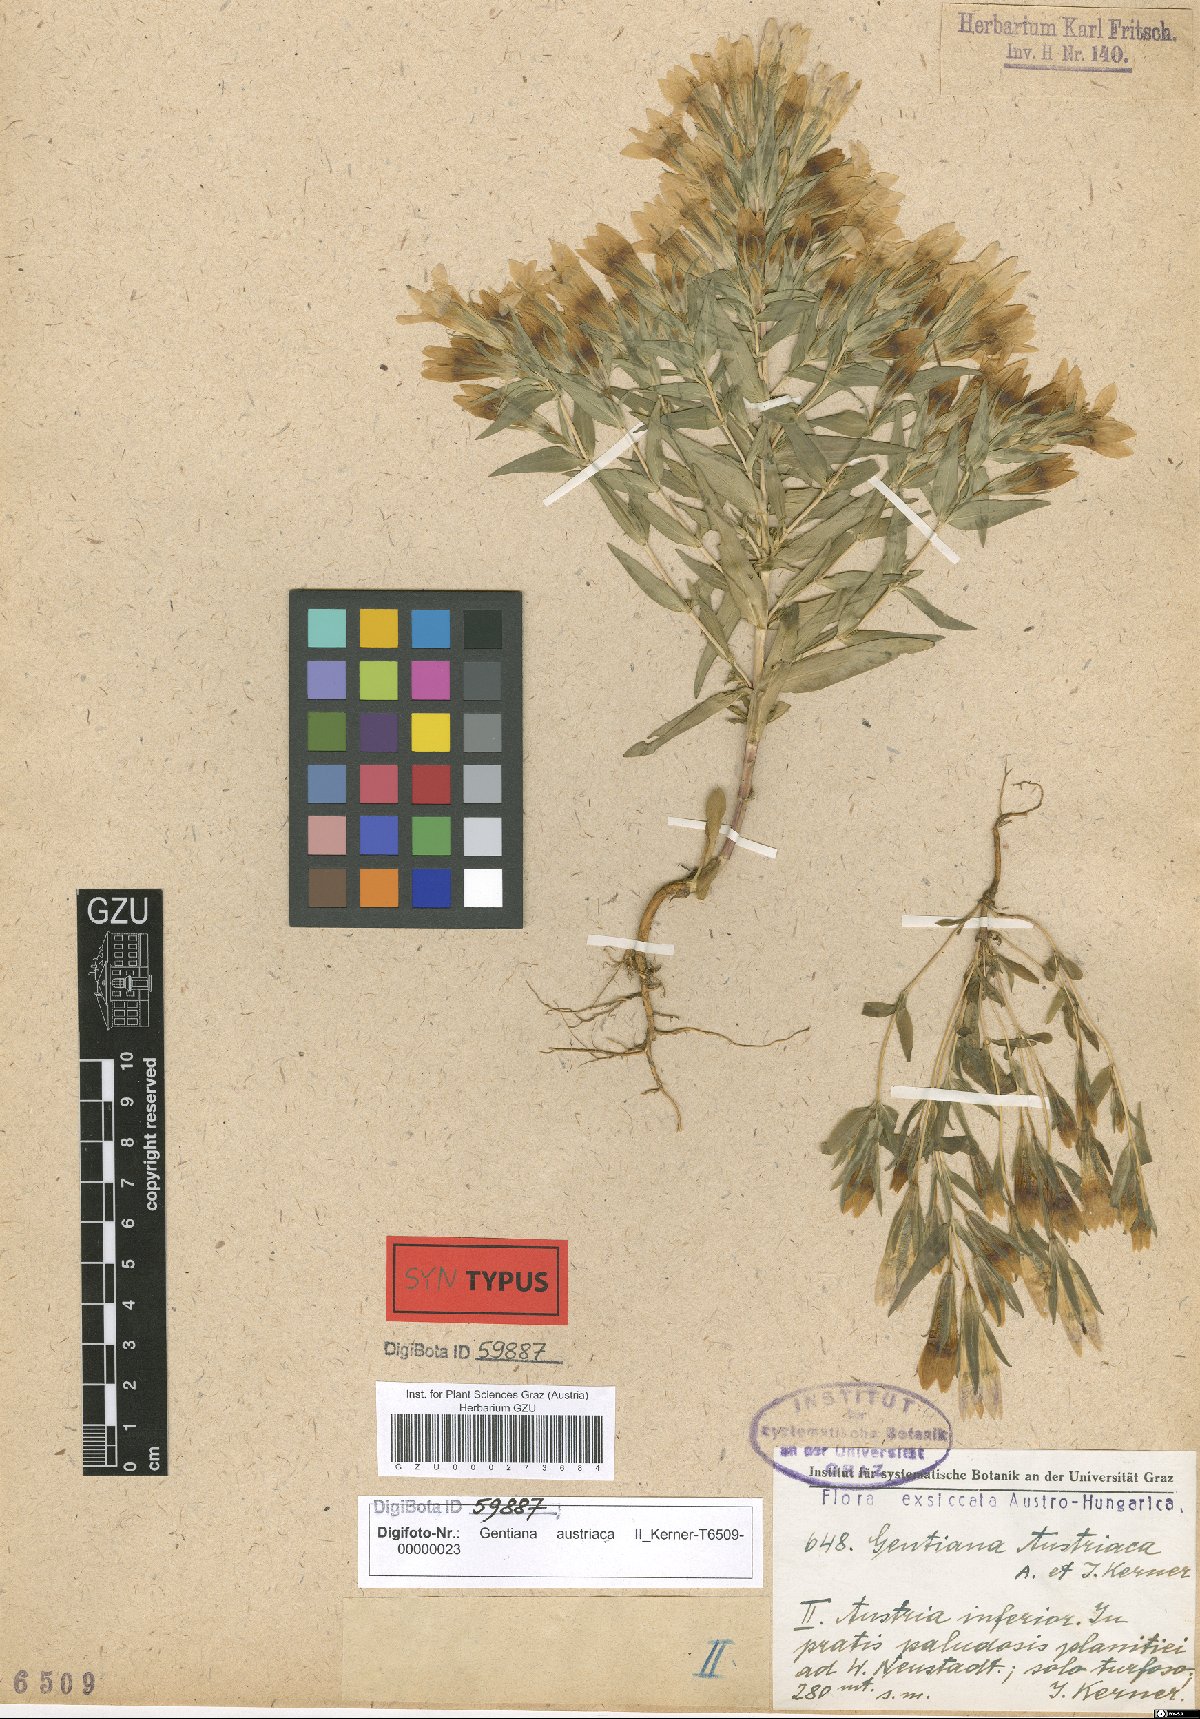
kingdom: Plantae
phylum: Tracheophyta
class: Magnoliopsida
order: Gentianales
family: Gentianaceae
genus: Gentianella
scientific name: Gentianella austriaca
